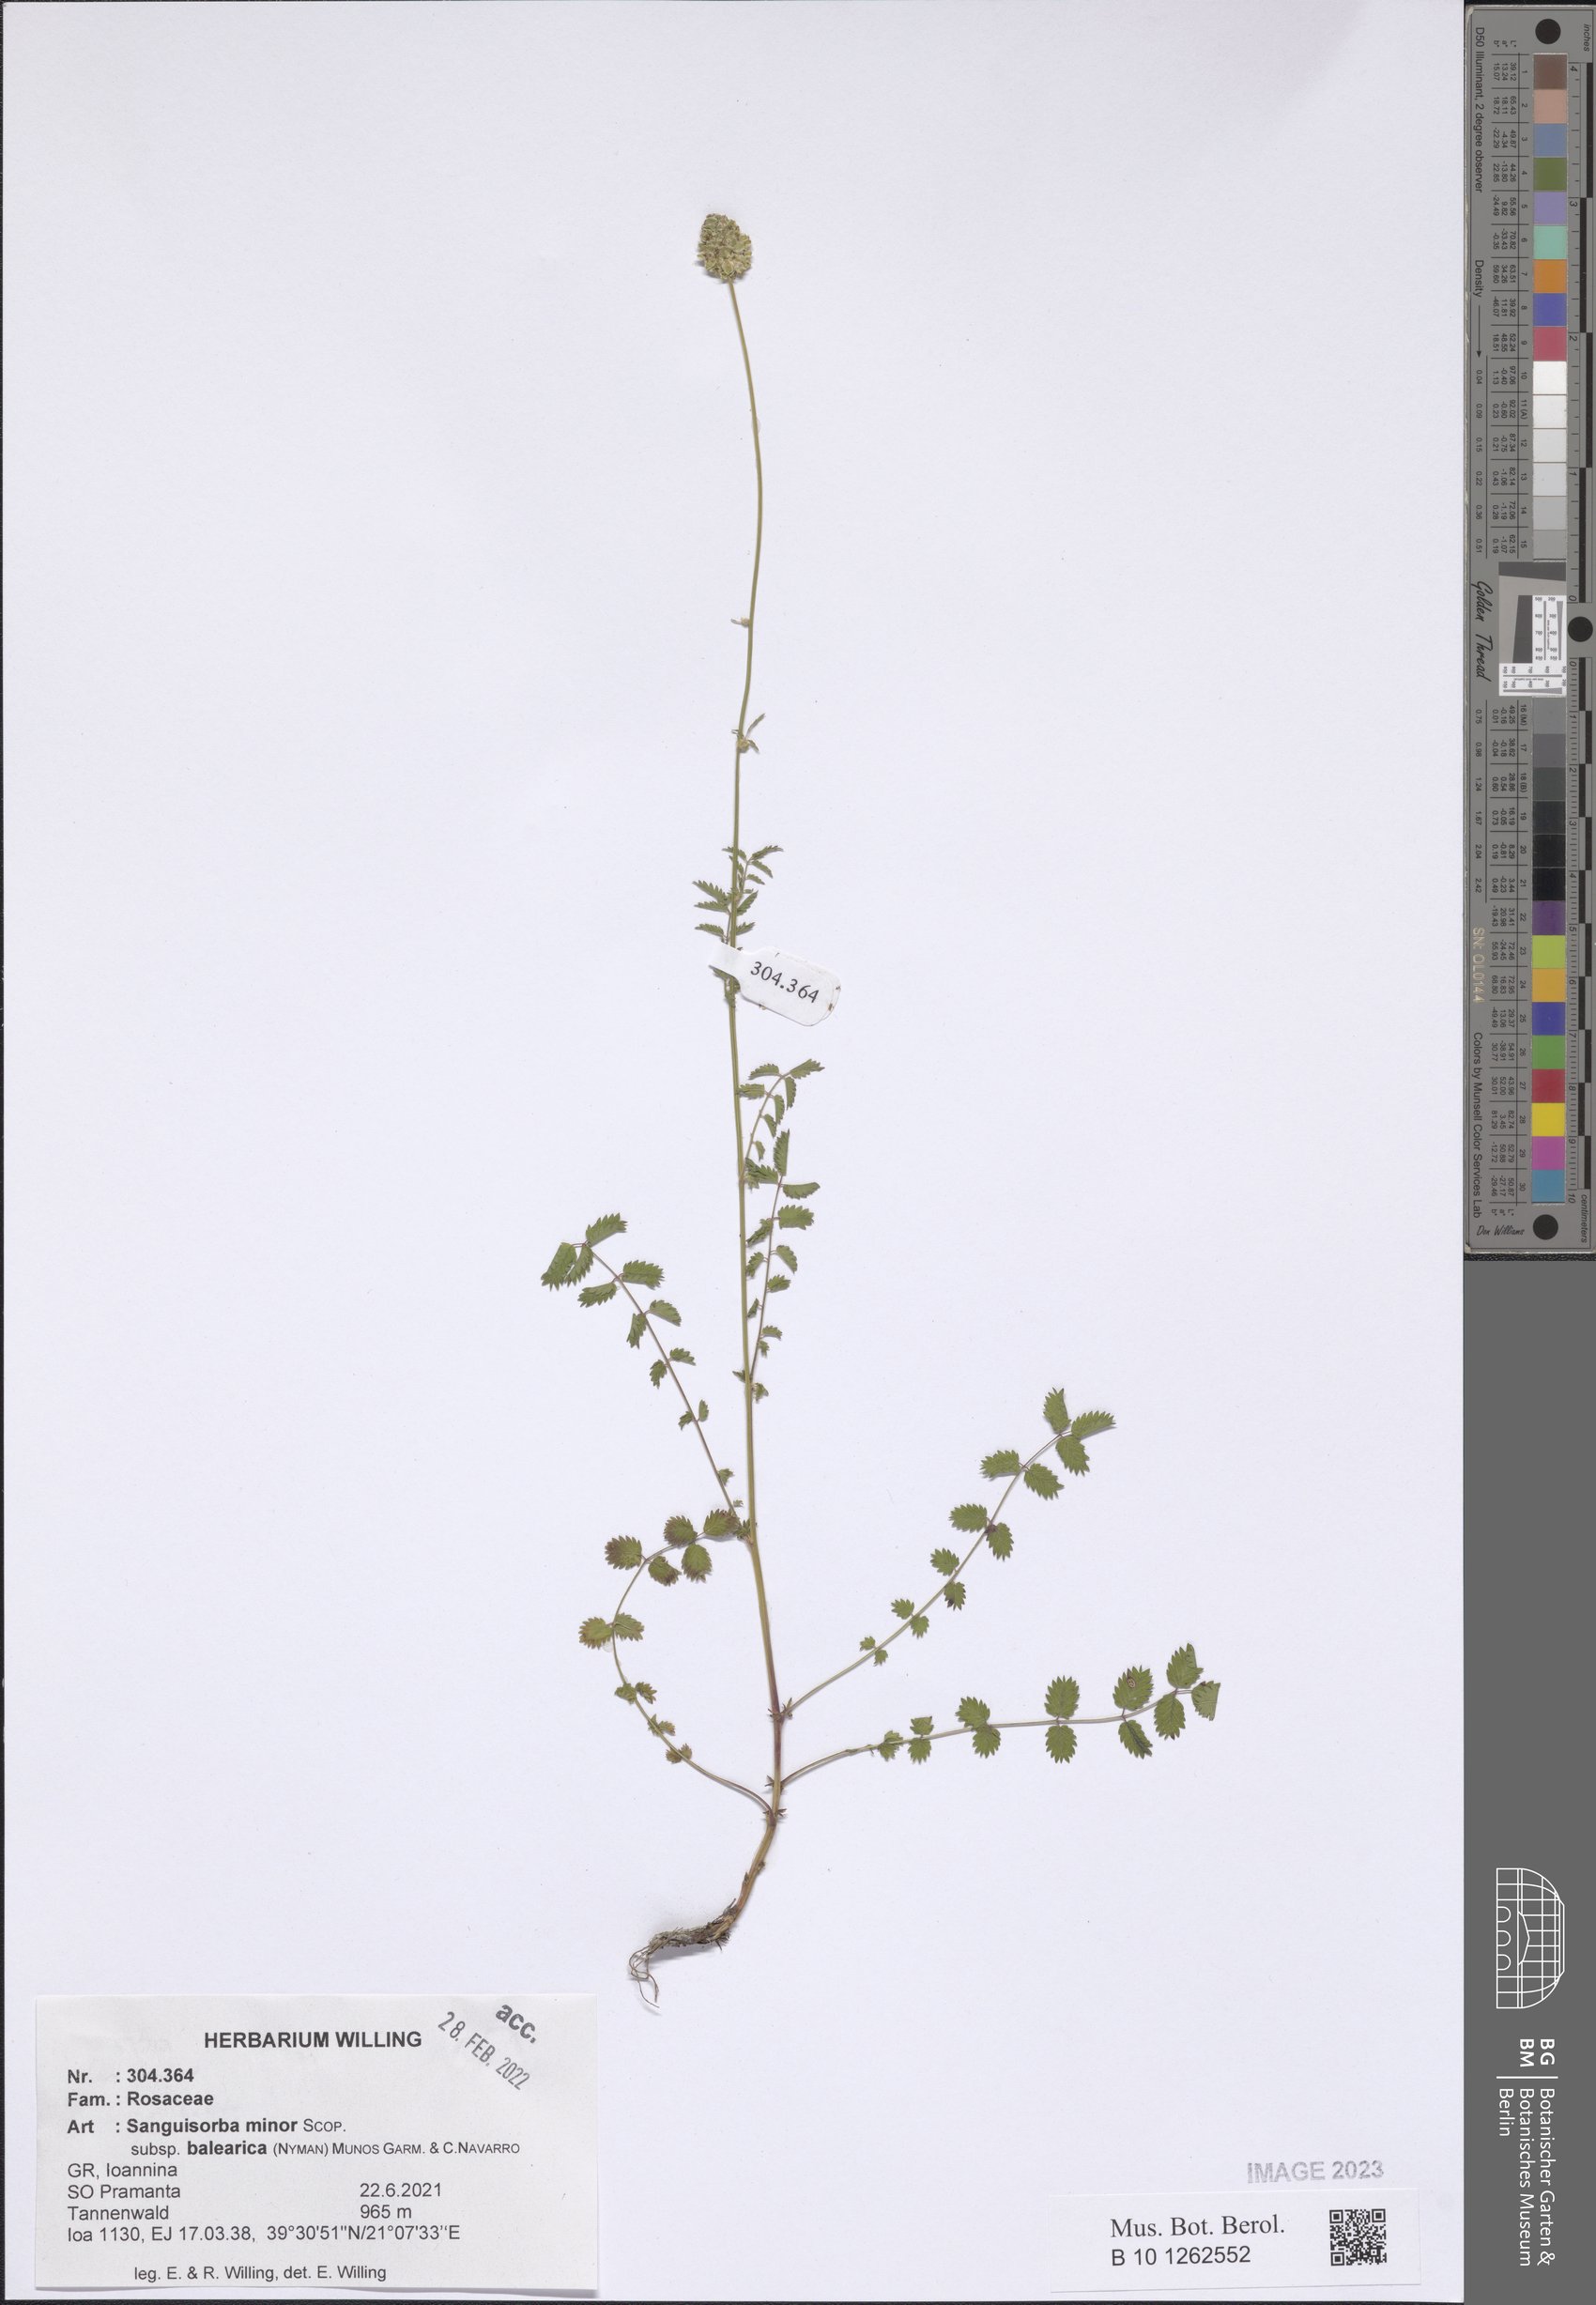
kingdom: Plantae
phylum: Tracheophyta
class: Liliopsida
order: Poales
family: Poaceae
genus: Festuca
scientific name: Festuca
